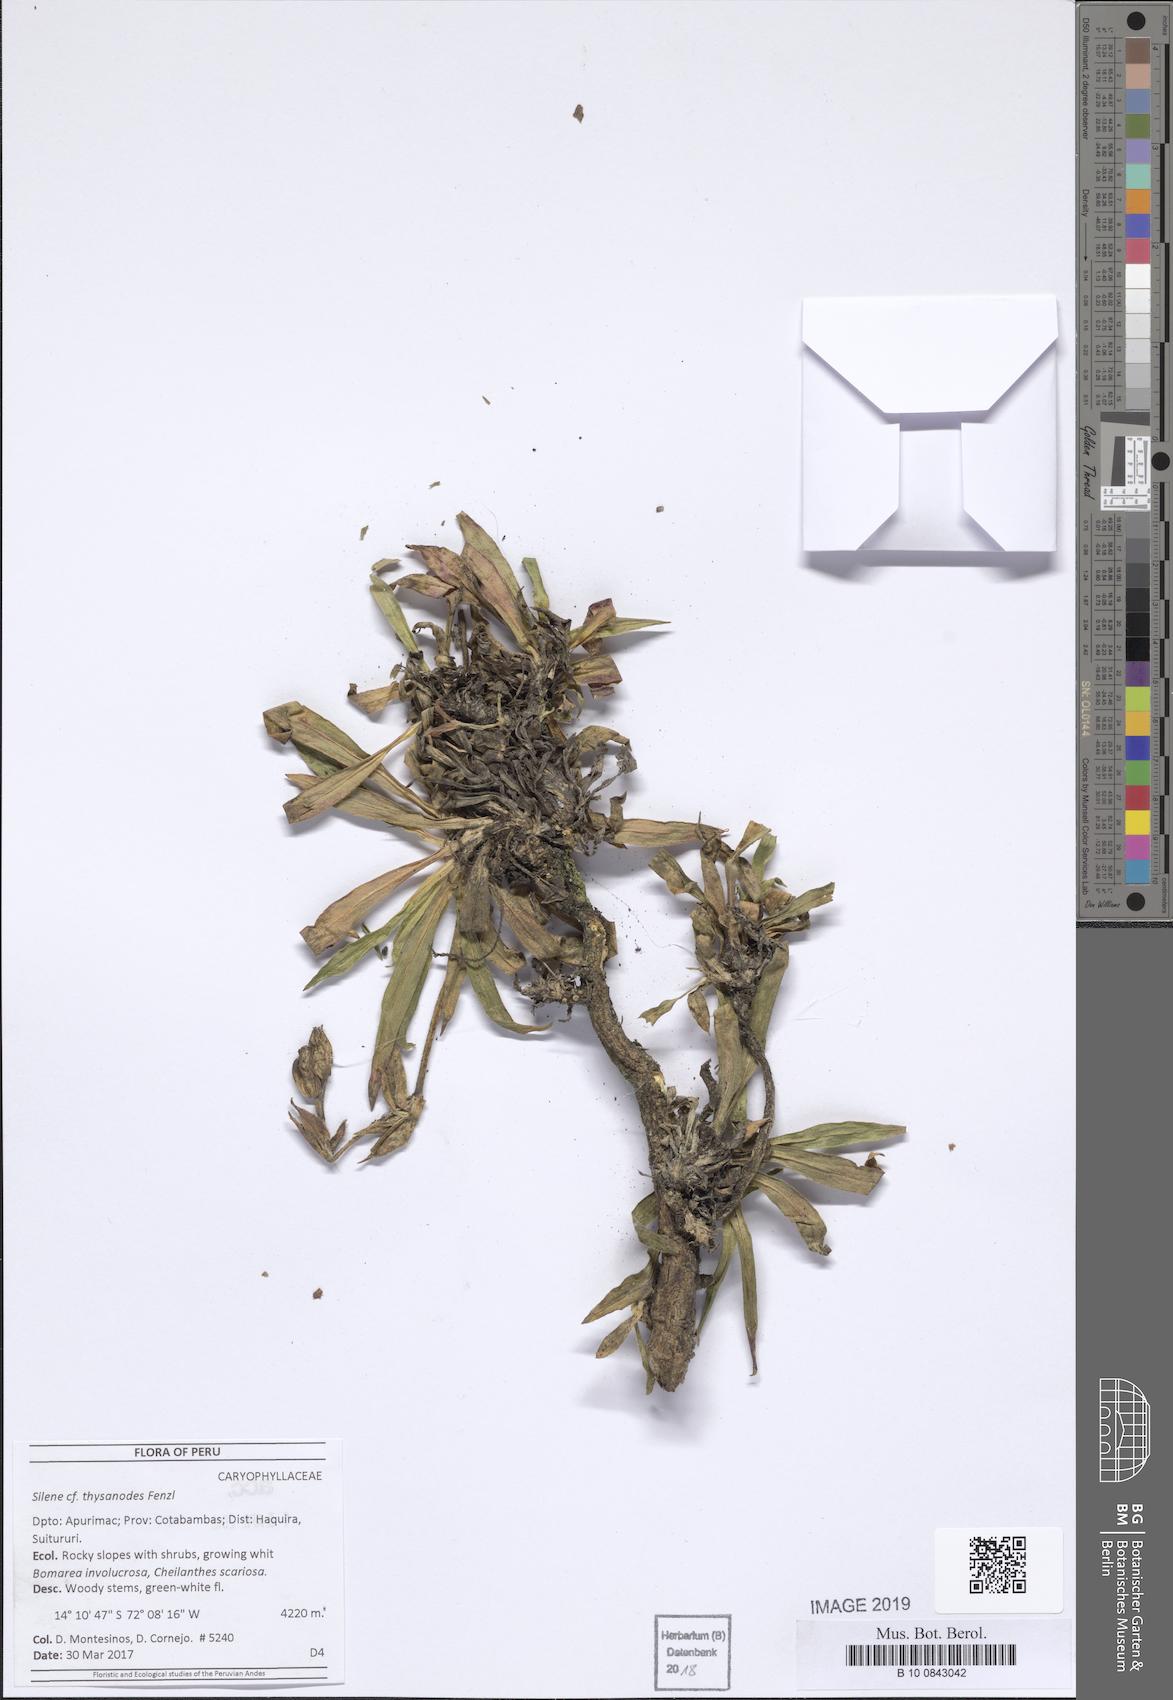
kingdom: Plantae
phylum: Tracheophyta
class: Magnoliopsida
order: Caryophyllales
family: Caryophyllaceae
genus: Silene
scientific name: Silene thysanodes
